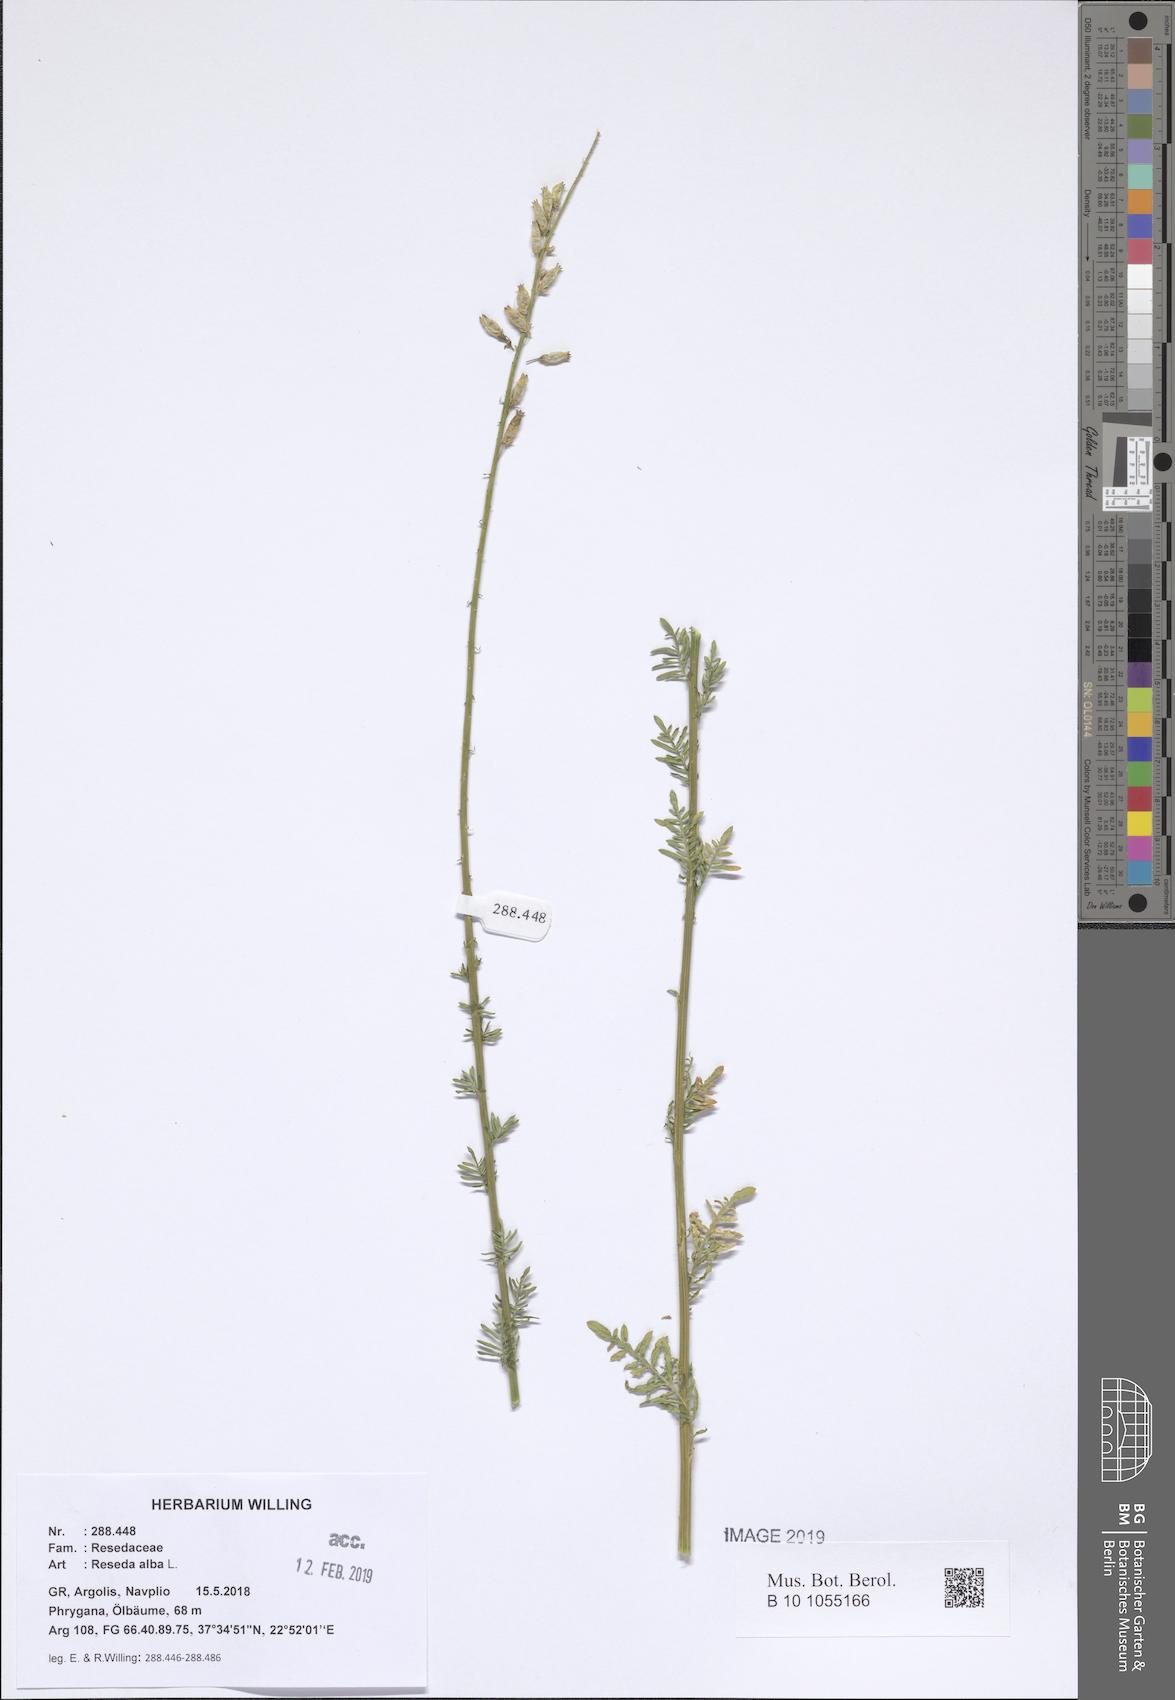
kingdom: Plantae
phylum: Tracheophyta
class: Magnoliopsida
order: Brassicales
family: Resedaceae
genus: Reseda
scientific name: Reseda alba
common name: White mignonette
